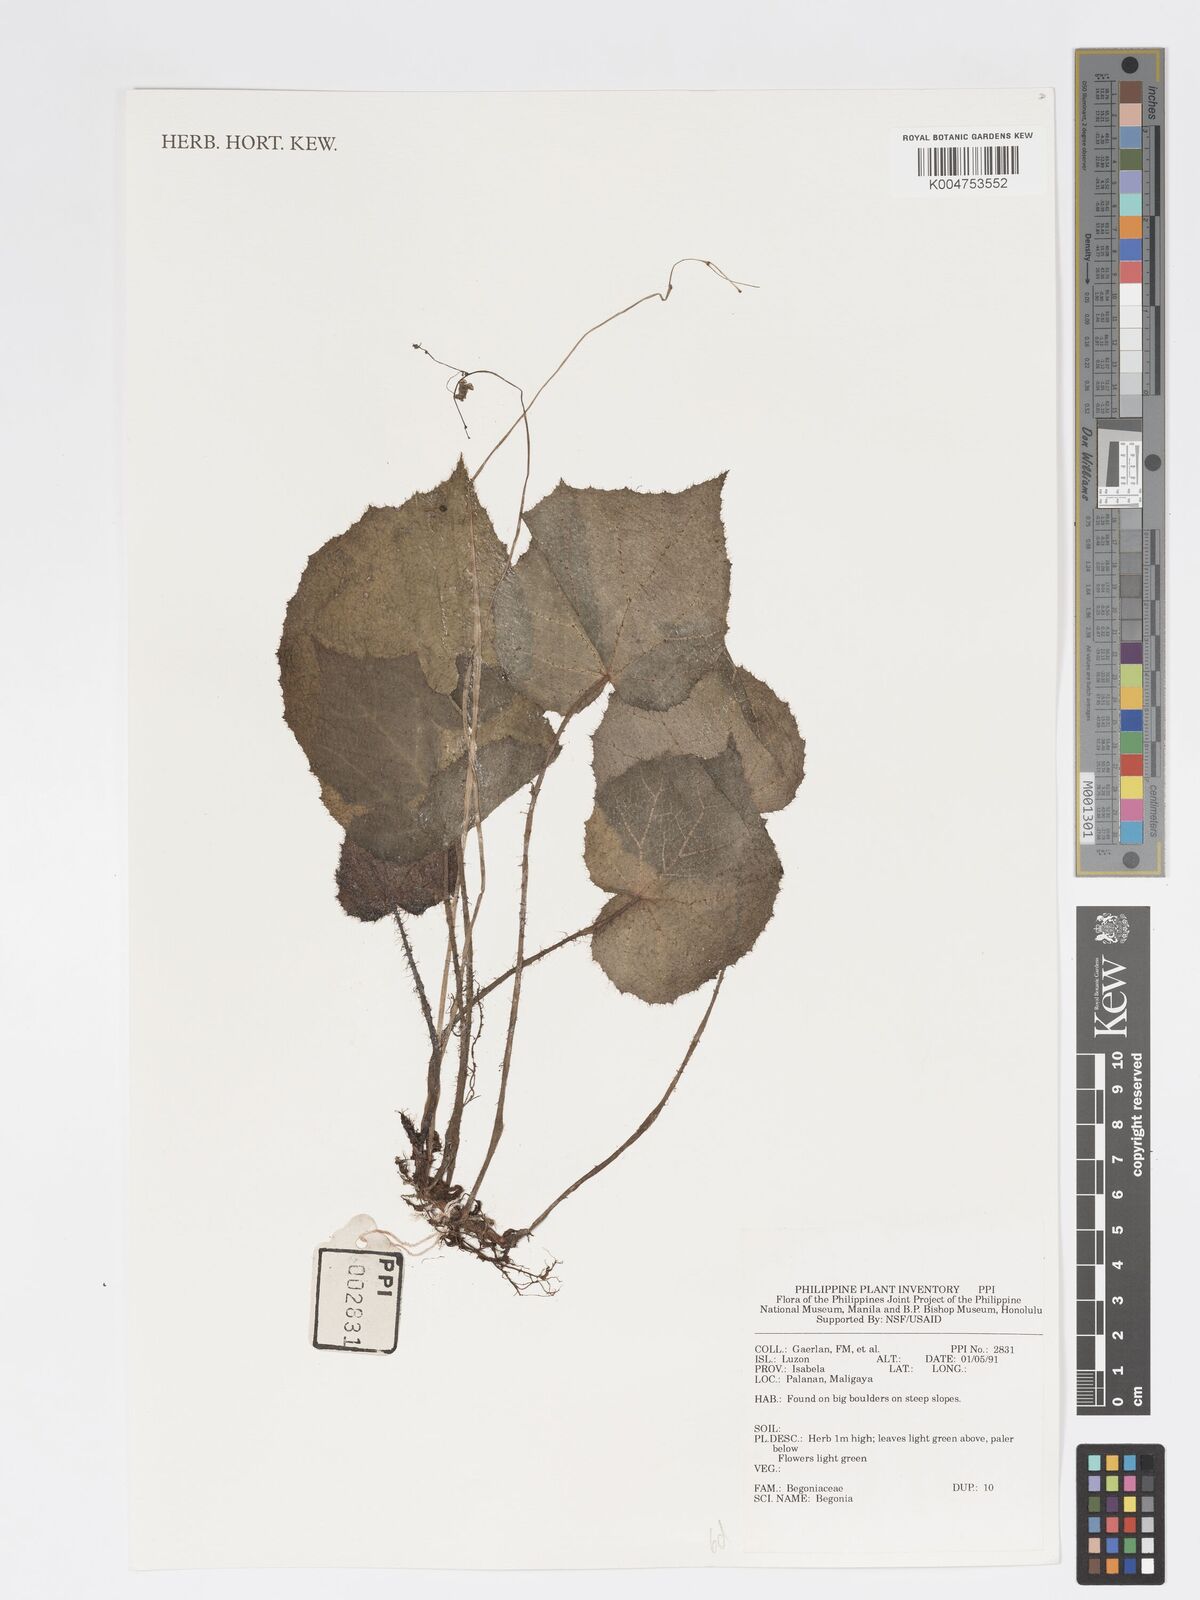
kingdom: Plantae
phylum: Tracheophyta
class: Magnoliopsida
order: Cucurbitales
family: Begoniaceae
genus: Begonia
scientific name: Begonia
